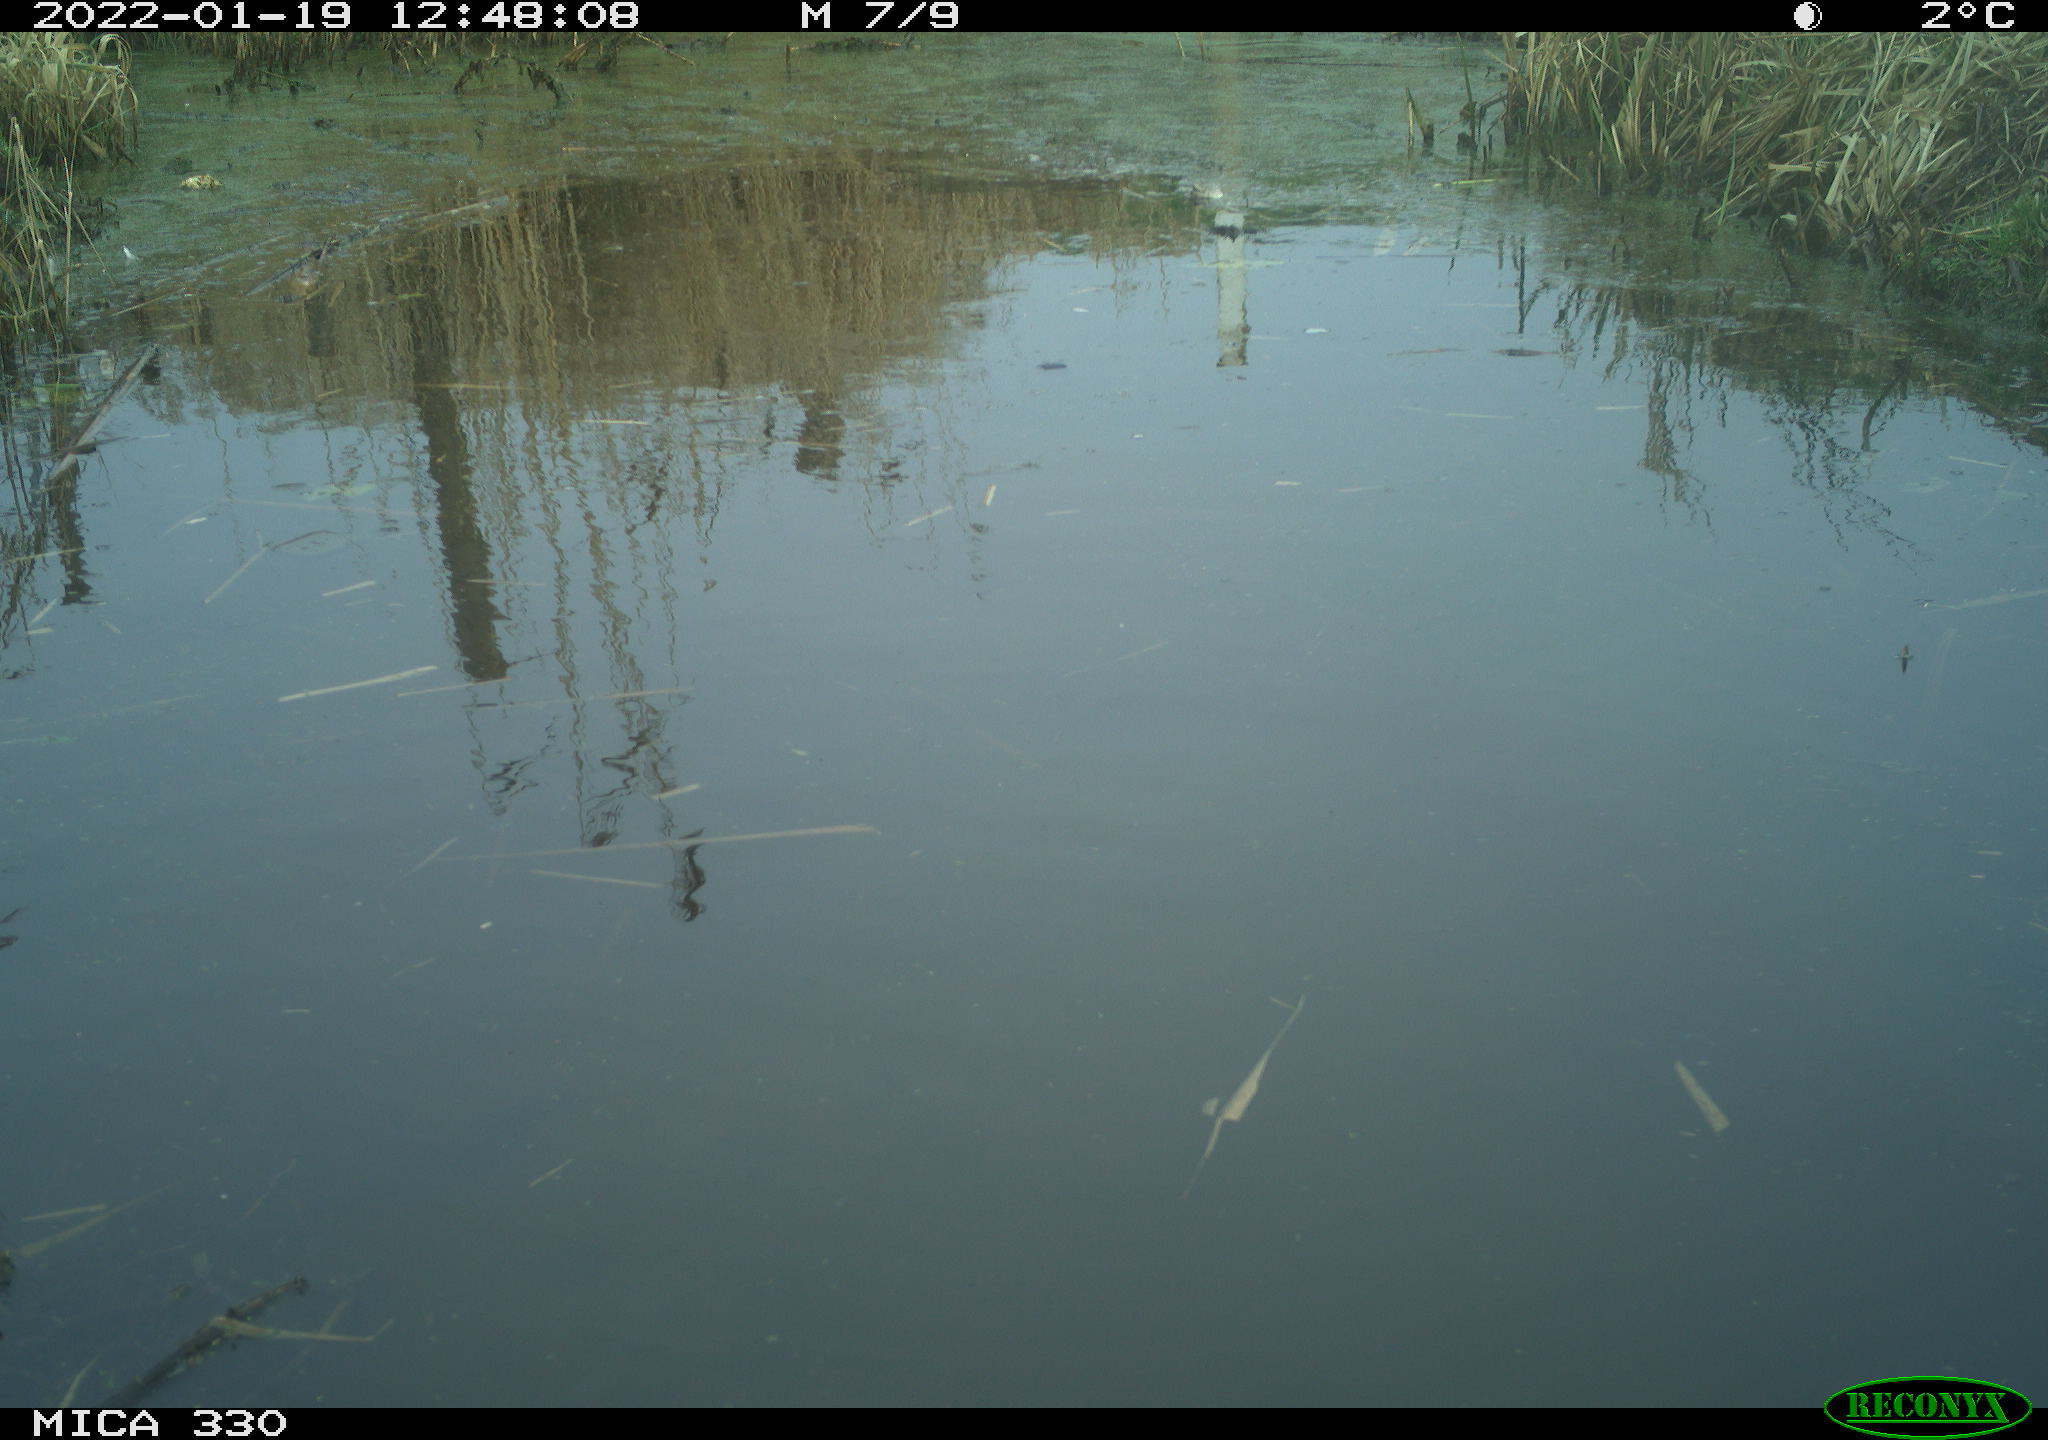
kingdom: Animalia
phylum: Chordata
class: Aves
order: Gruiformes
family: Rallidae
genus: Gallinula
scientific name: Gallinula chloropus
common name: Common moorhen
